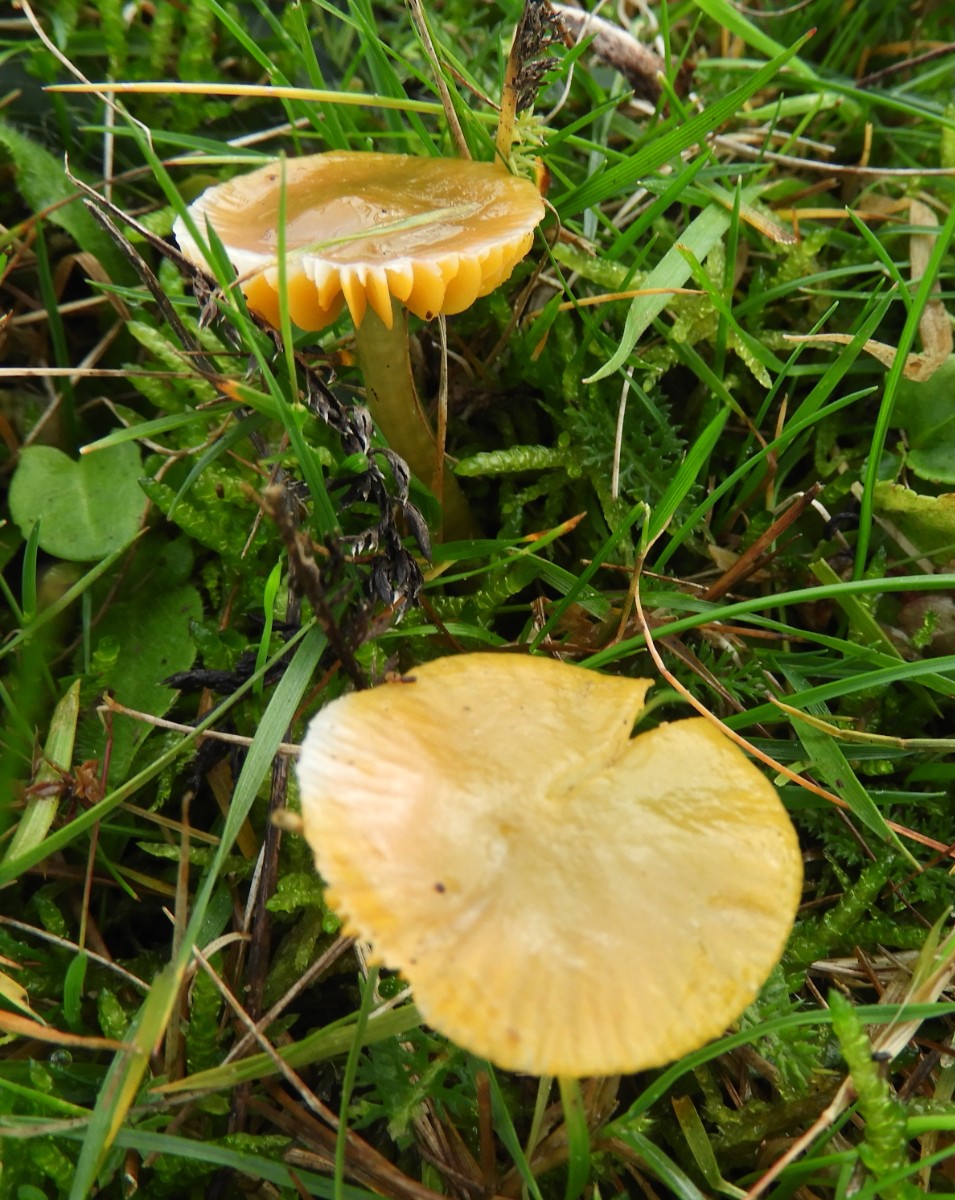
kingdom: Fungi
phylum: Basidiomycota
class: Agaricomycetes
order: Agaricales
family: Hygrophoraceae
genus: Gliophorus
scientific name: Gliophorus psittacinus
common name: papegøje-vokshat
